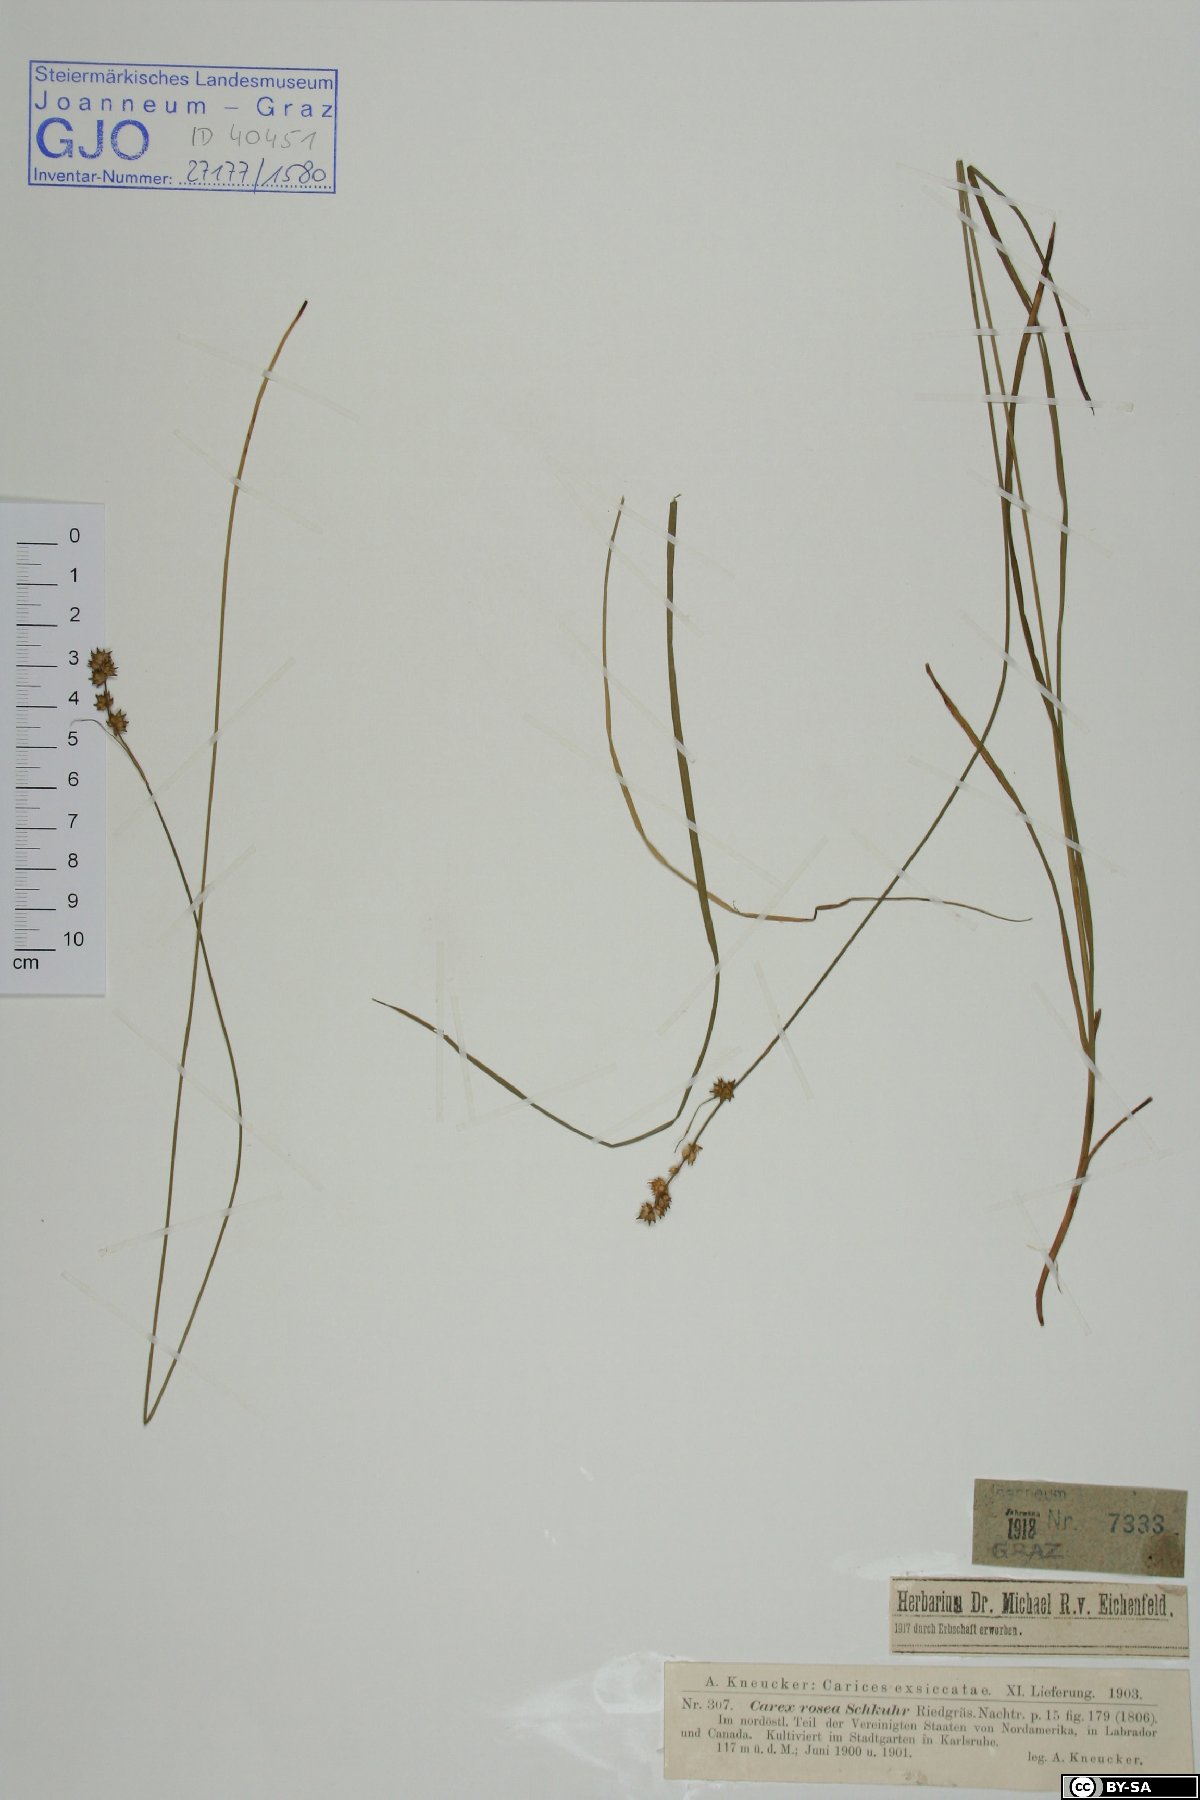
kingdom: Plantae
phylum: Tracheophyta
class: Liliopsida
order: Poales
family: Cyperaceae
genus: Carex
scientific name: Carex rosea
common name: Curly-styled wood sedge
